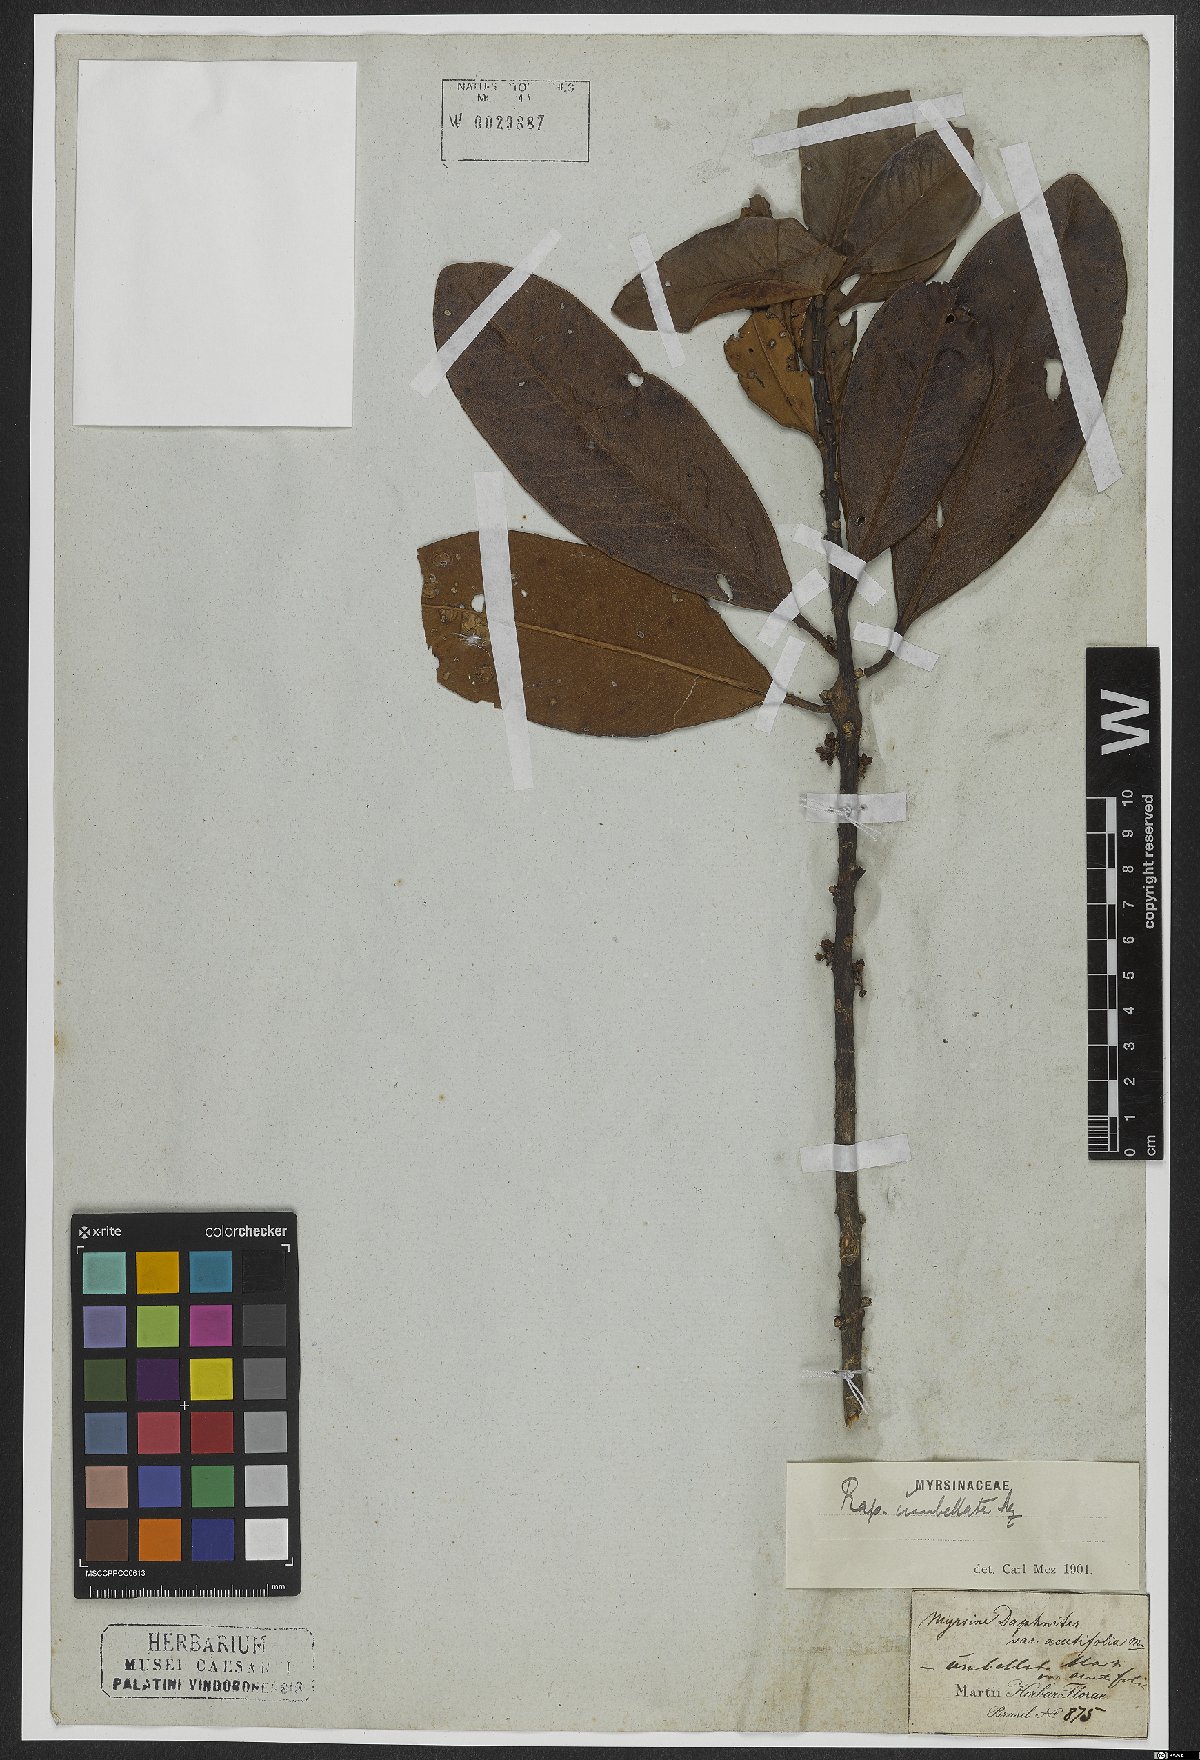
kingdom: Plantae
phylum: Tracheophyta
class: Magnoliopsida
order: Ericales
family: Primulaceae
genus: Myrsine
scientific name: Myrsine umbellata
